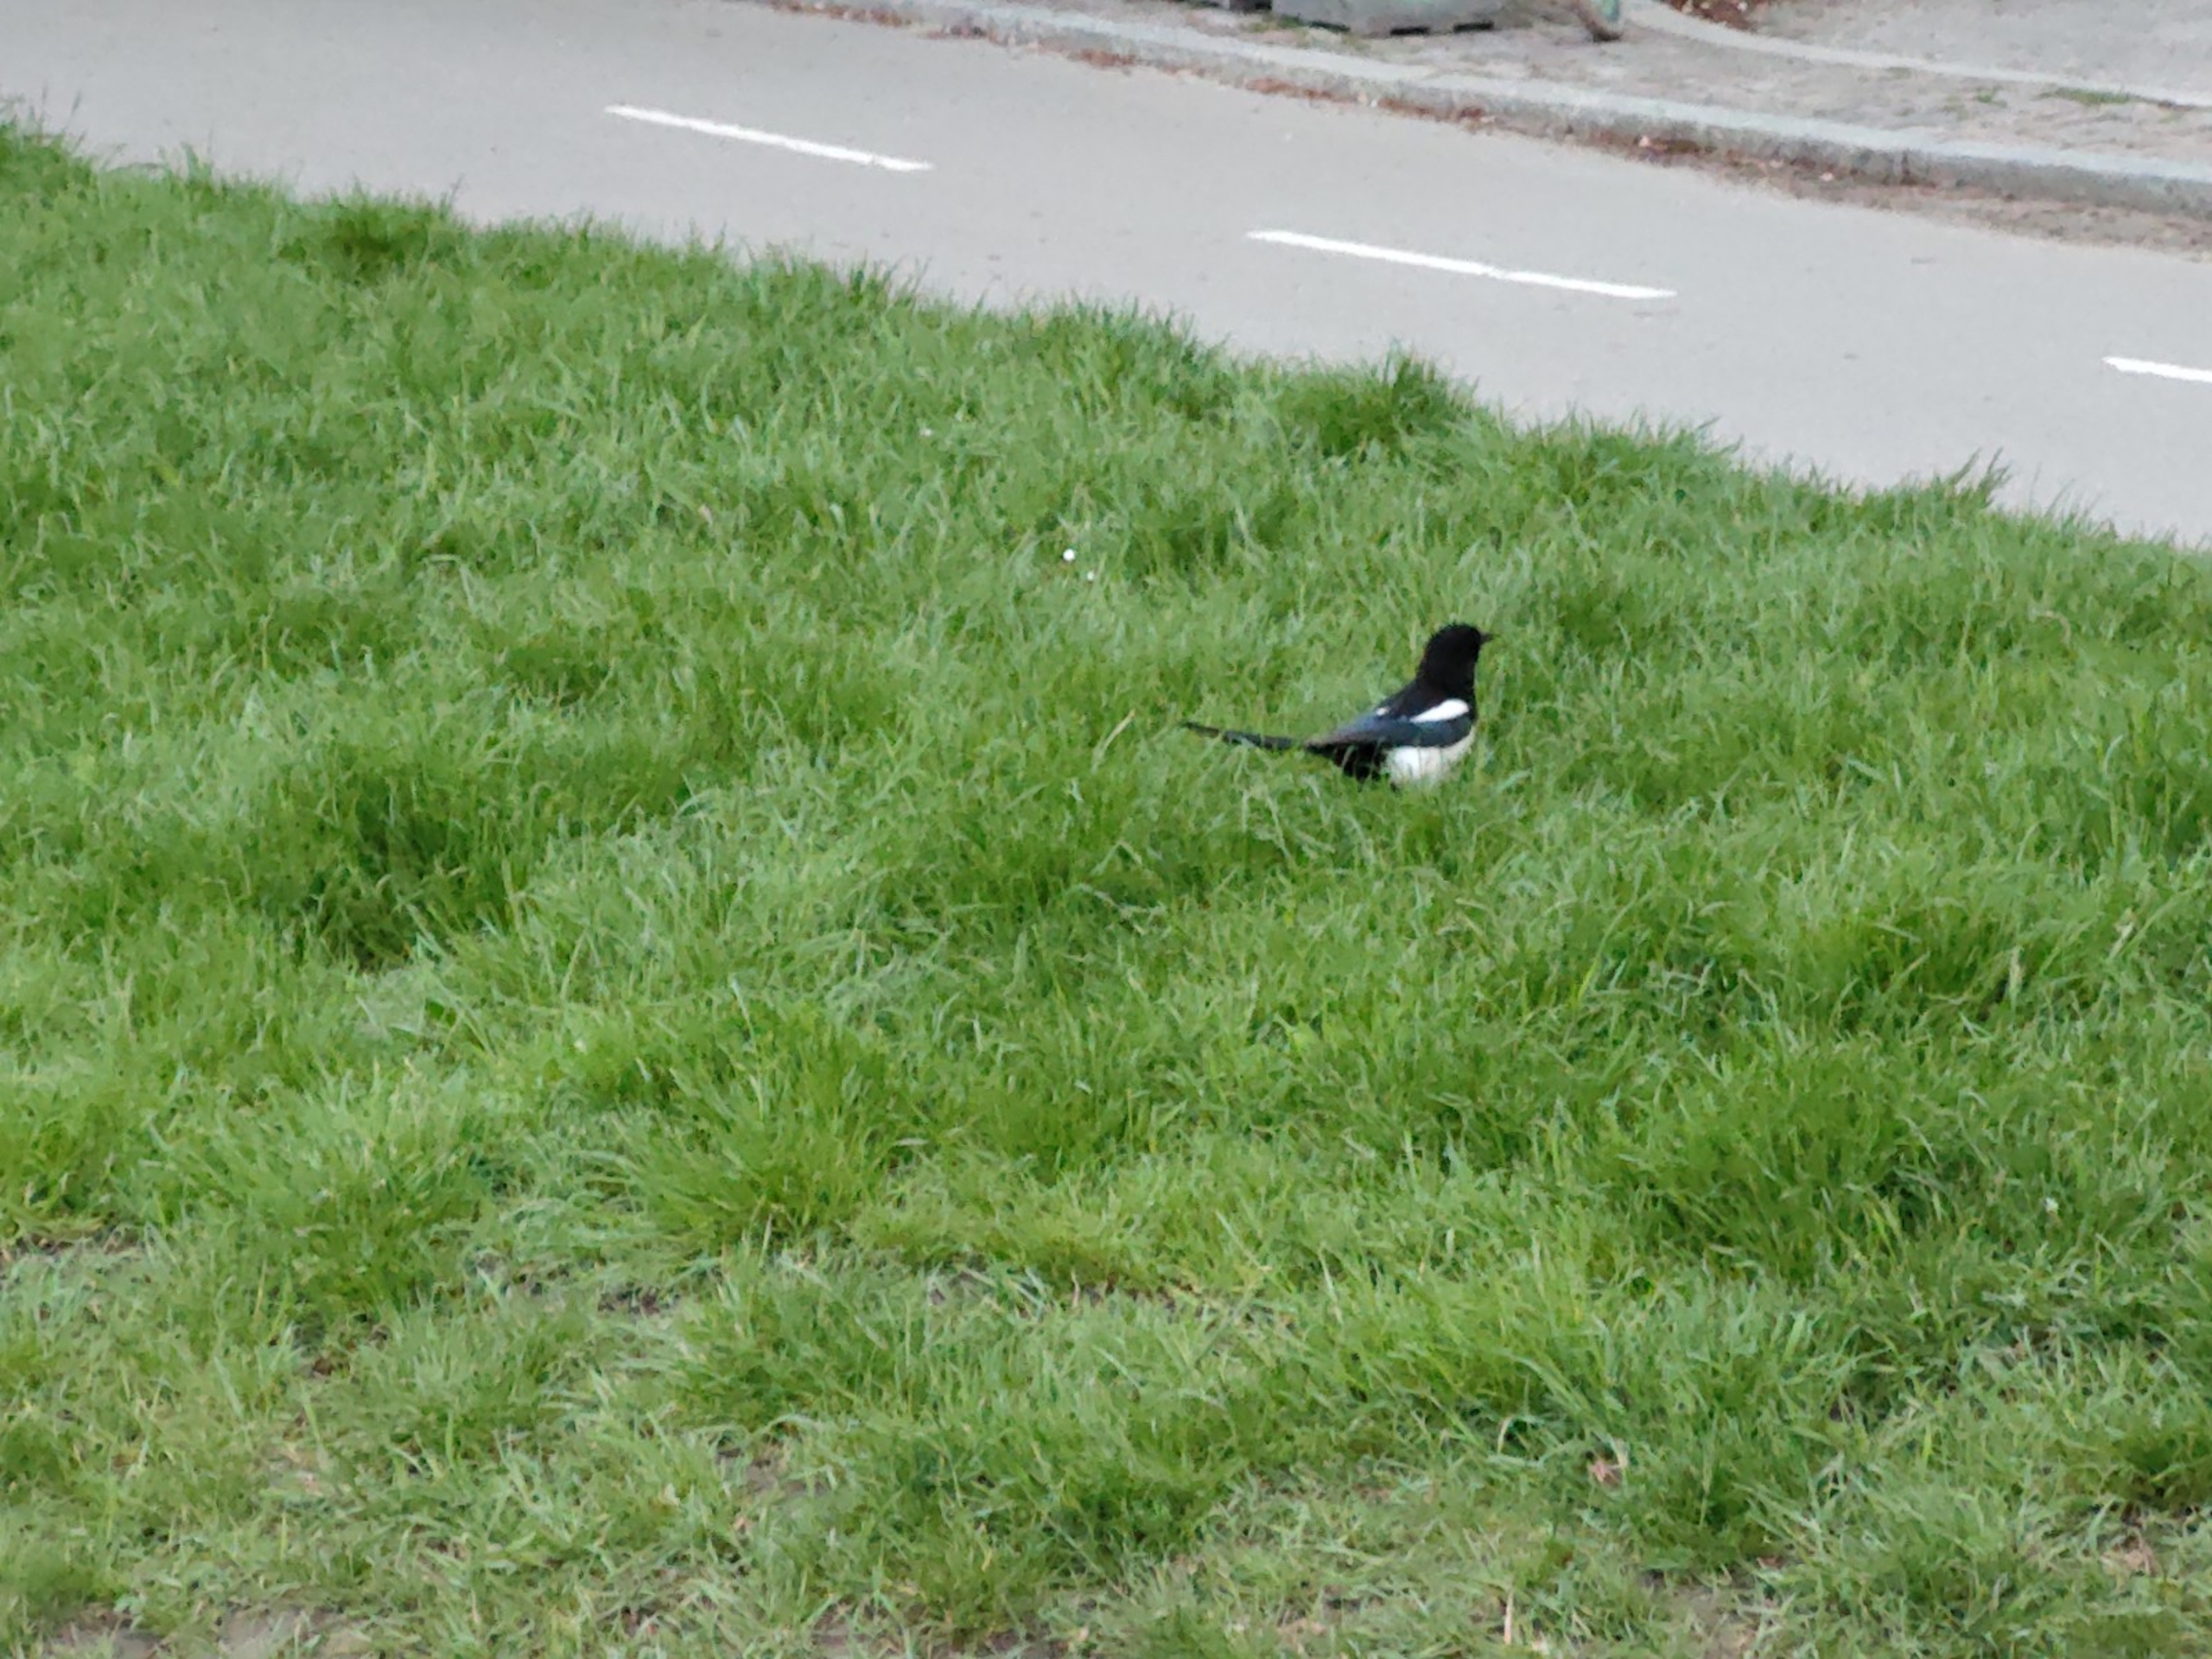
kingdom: Animalia
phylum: Chordata
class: Aves
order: Passeriformes
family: Corvidae
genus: Pica
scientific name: Pica pica
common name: Husskade
